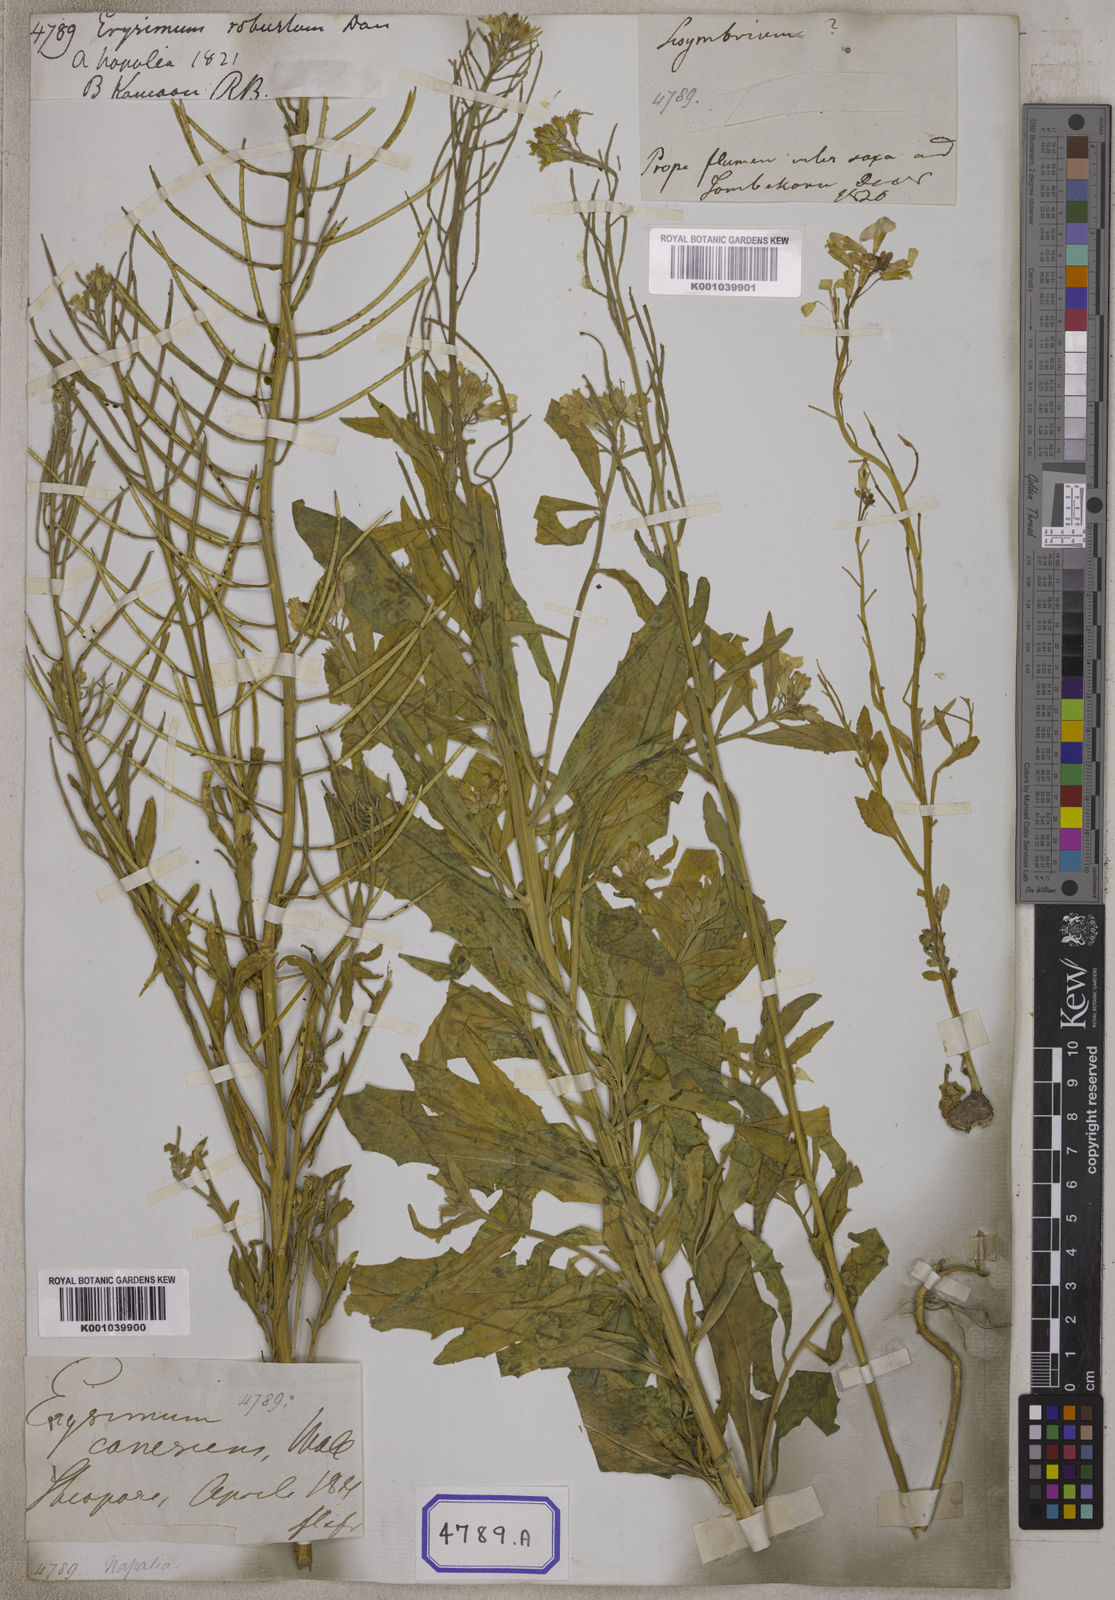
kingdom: Plantae
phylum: Tracheophyta
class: Magnoliopsida
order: Brassicales
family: Brassicaceae
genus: Erysimum
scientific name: Erysimum hieraciifolium
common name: European wallflower
